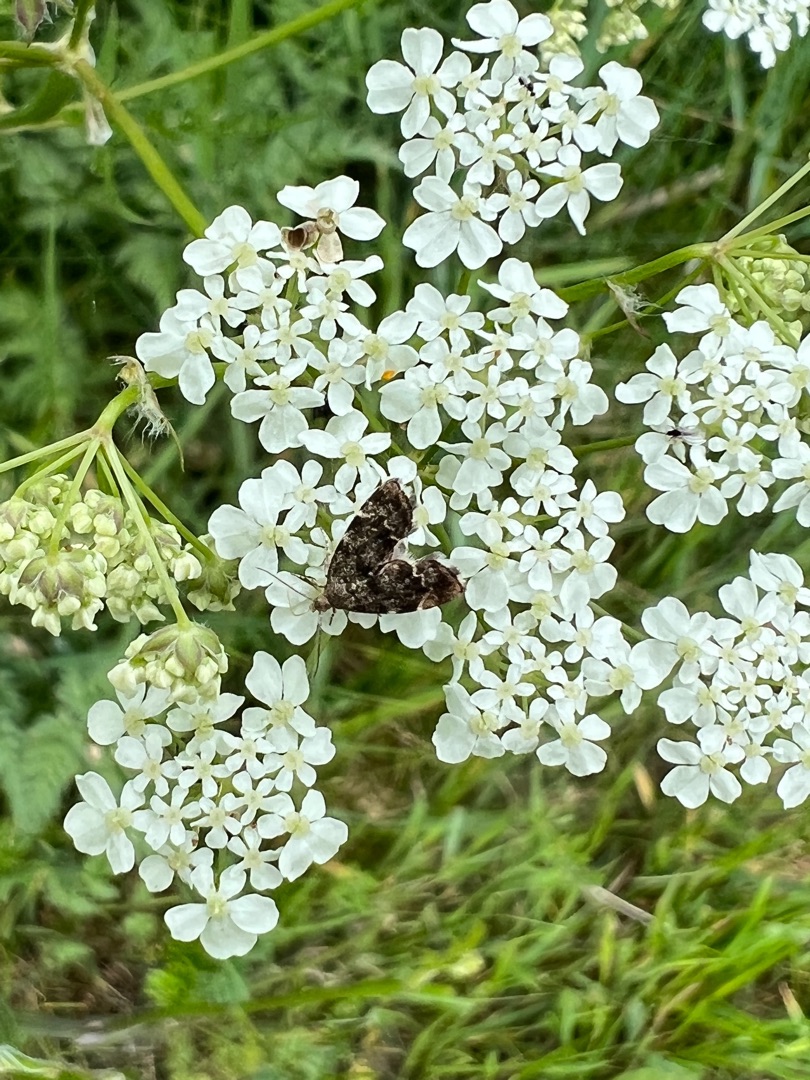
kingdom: Animalia
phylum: Arthropoda
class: Insecta
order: Lepidoptera
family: Choreutidae
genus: Anthophila
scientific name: Anthophila fabriciana
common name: Bredvinget nældevikler
